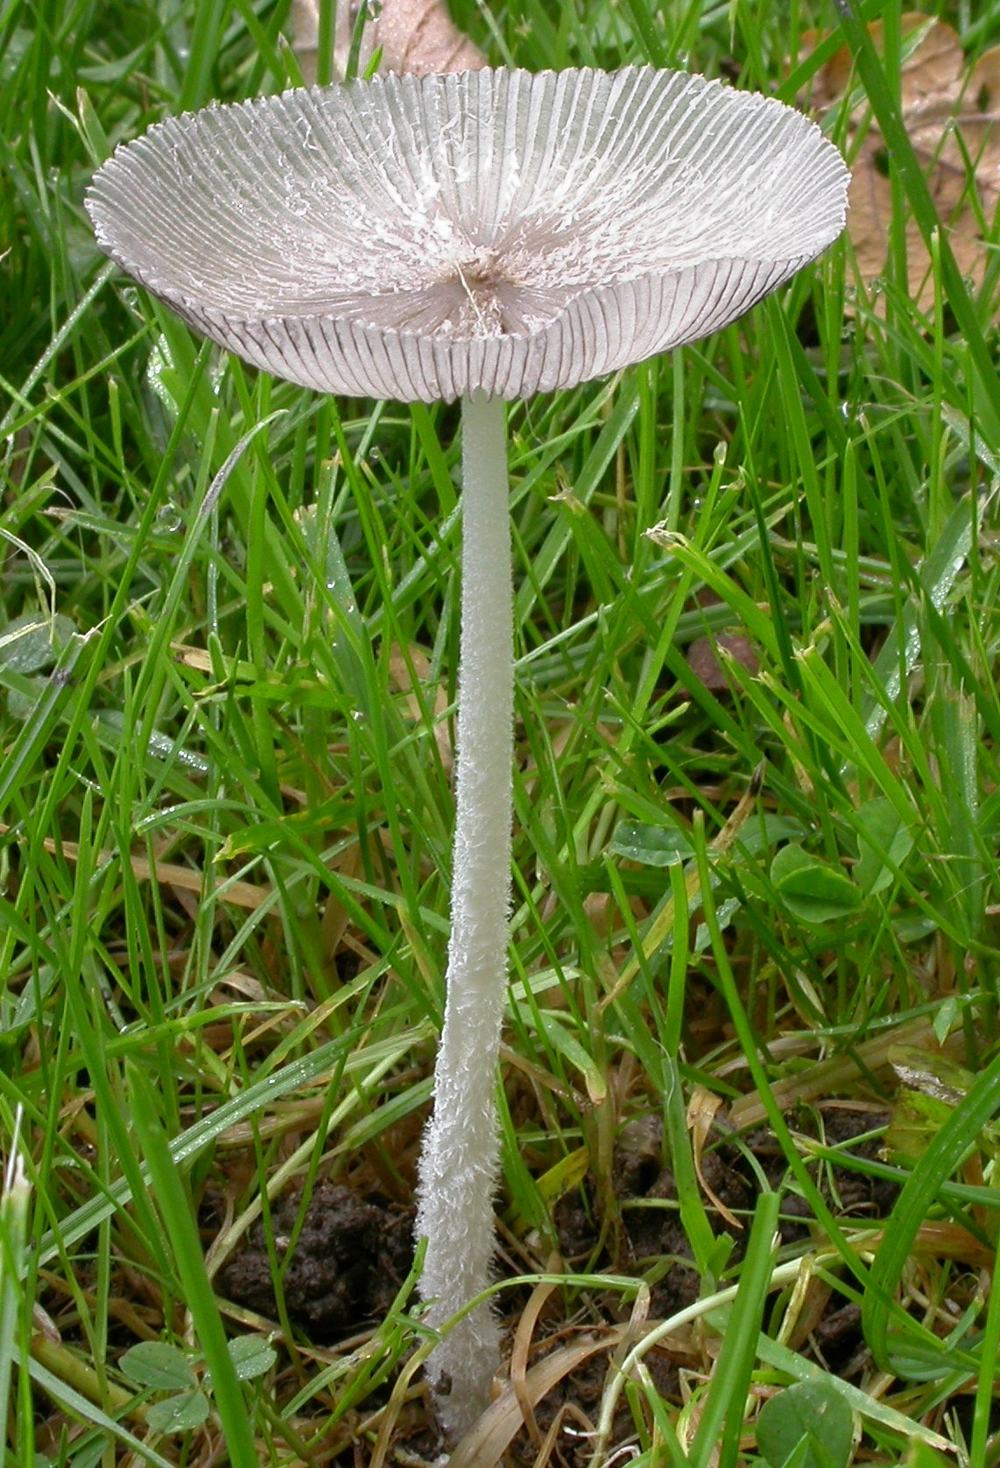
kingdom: Fungi
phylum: Basidiomycota
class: Agaricomycetes
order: Agaricales
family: Psathyrellaceae
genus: Coprinopsis
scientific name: Coprinopsis lagopus
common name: dunstokket blækhat
